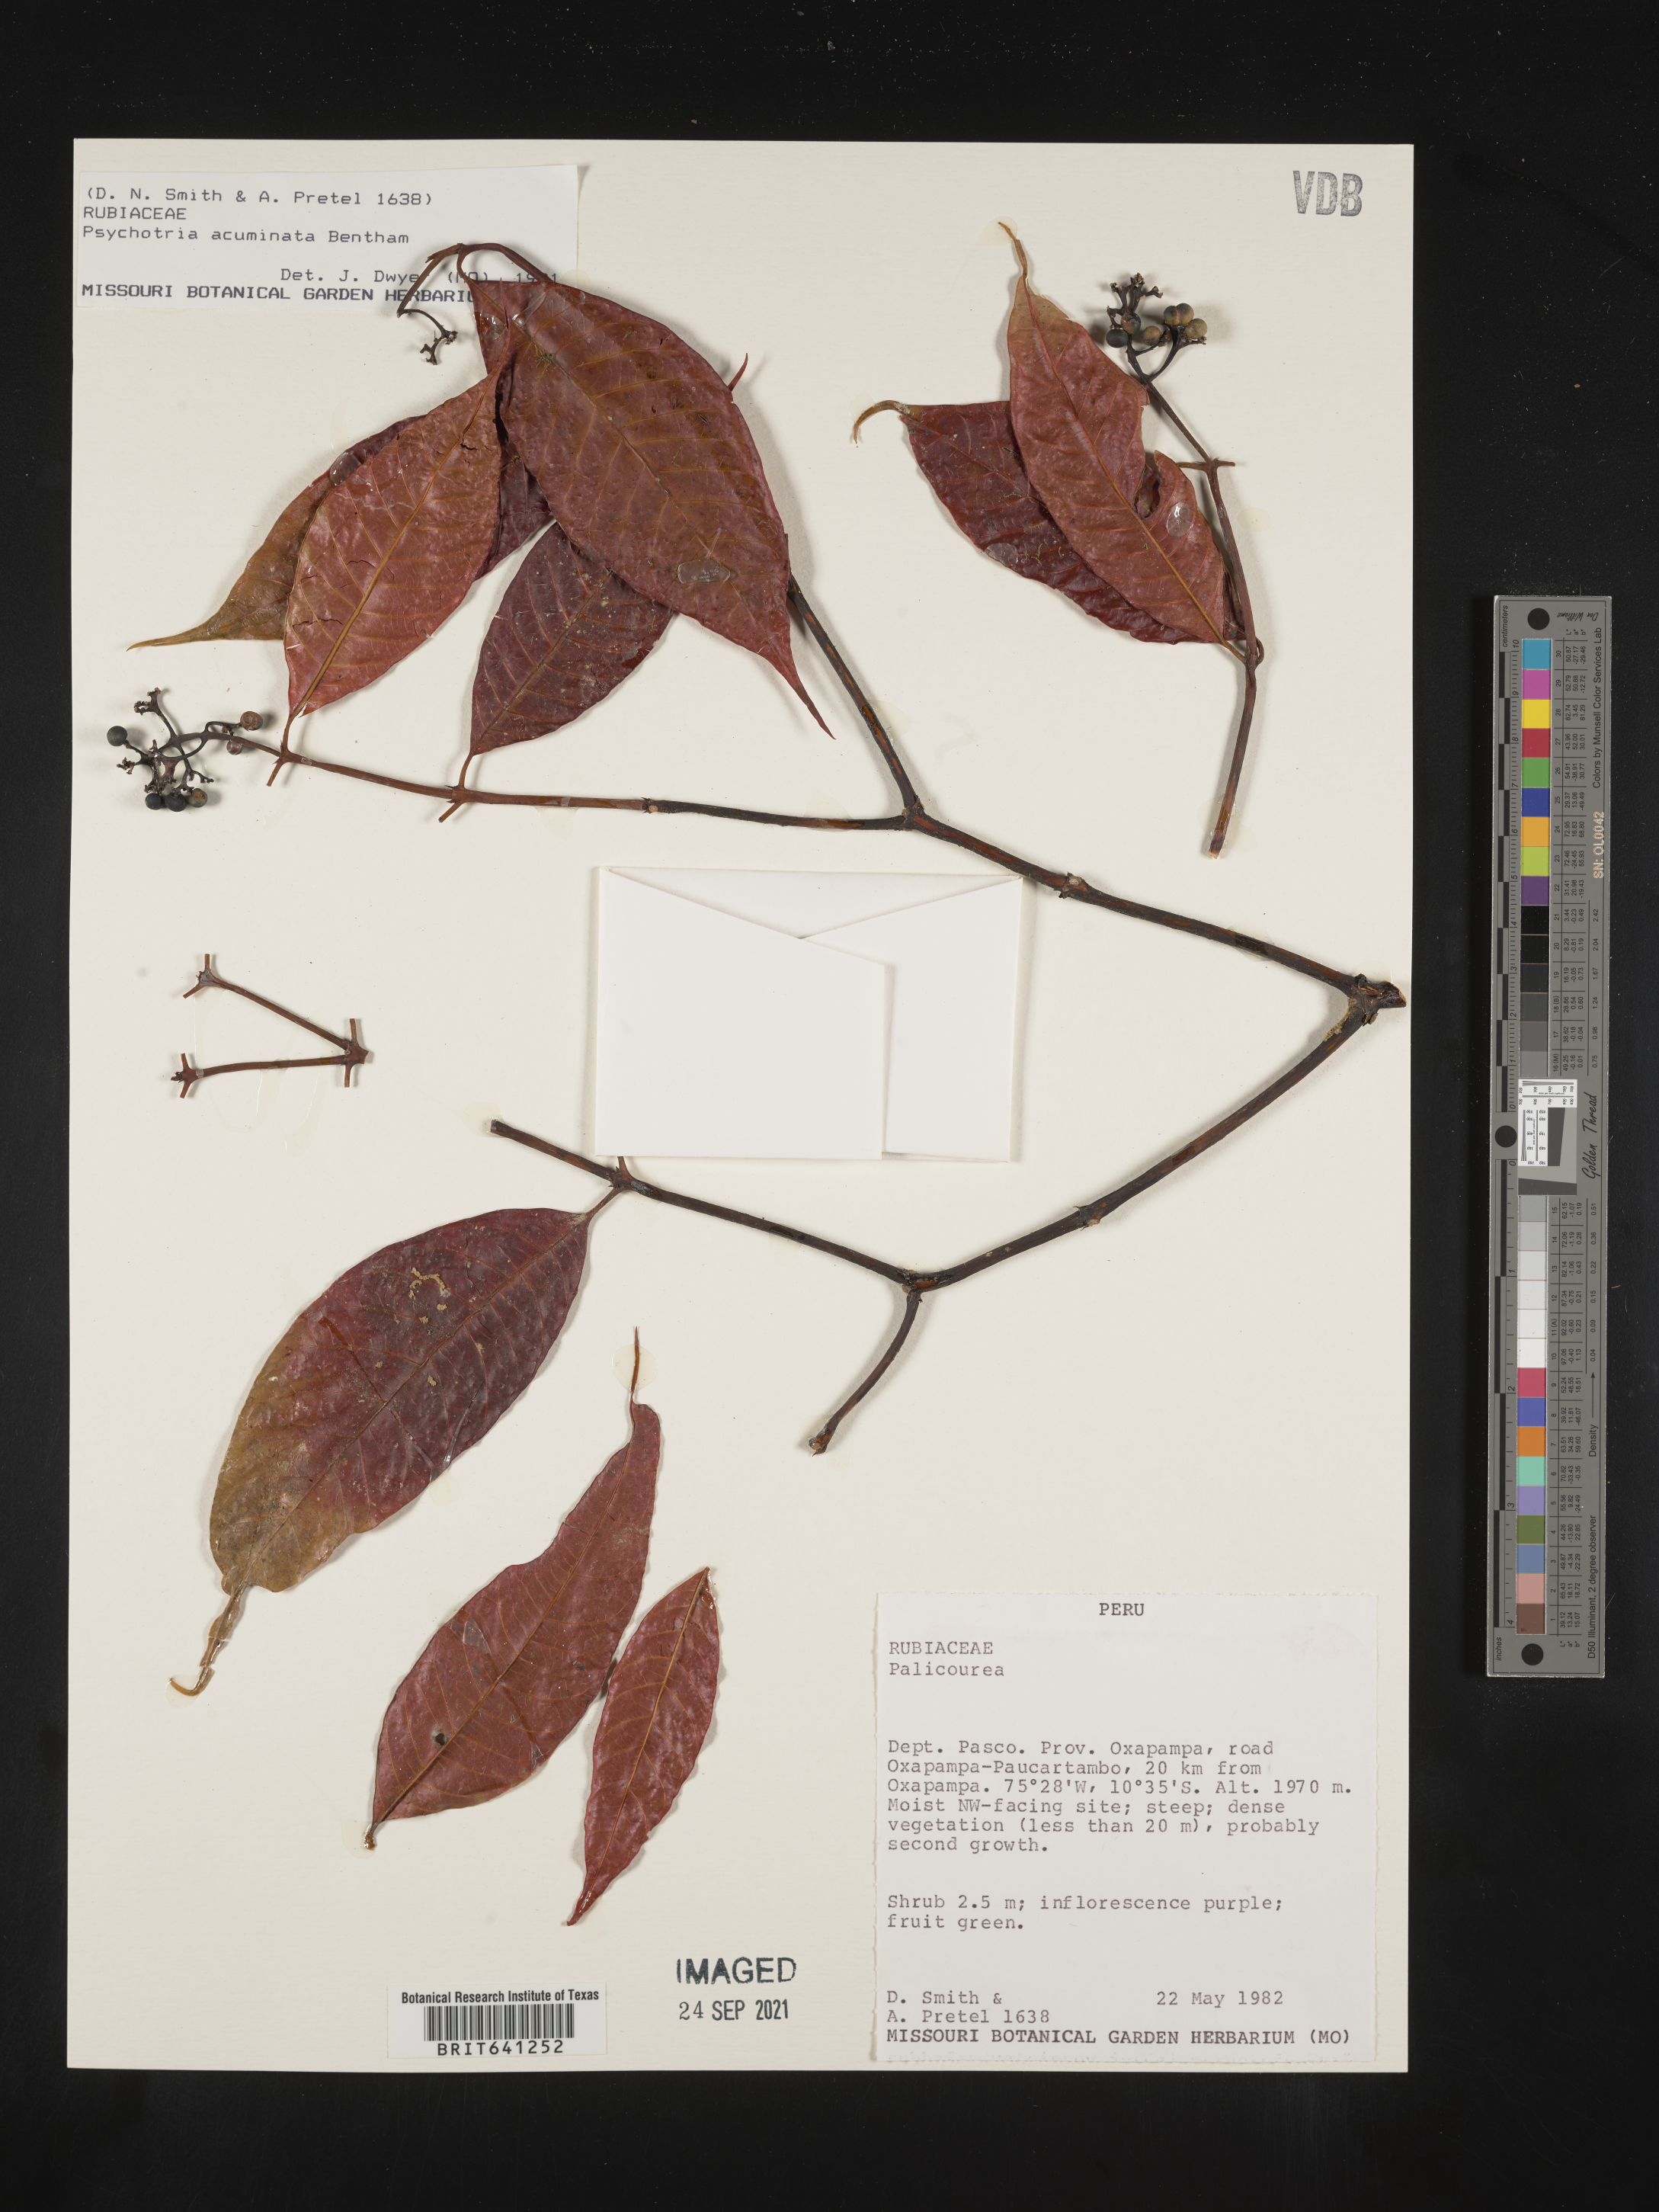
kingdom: Plantae
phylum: Tracheophyta
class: Magnoliopsida
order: Gentianales
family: Rubiaceae
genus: Psychotria
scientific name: Psychotria
